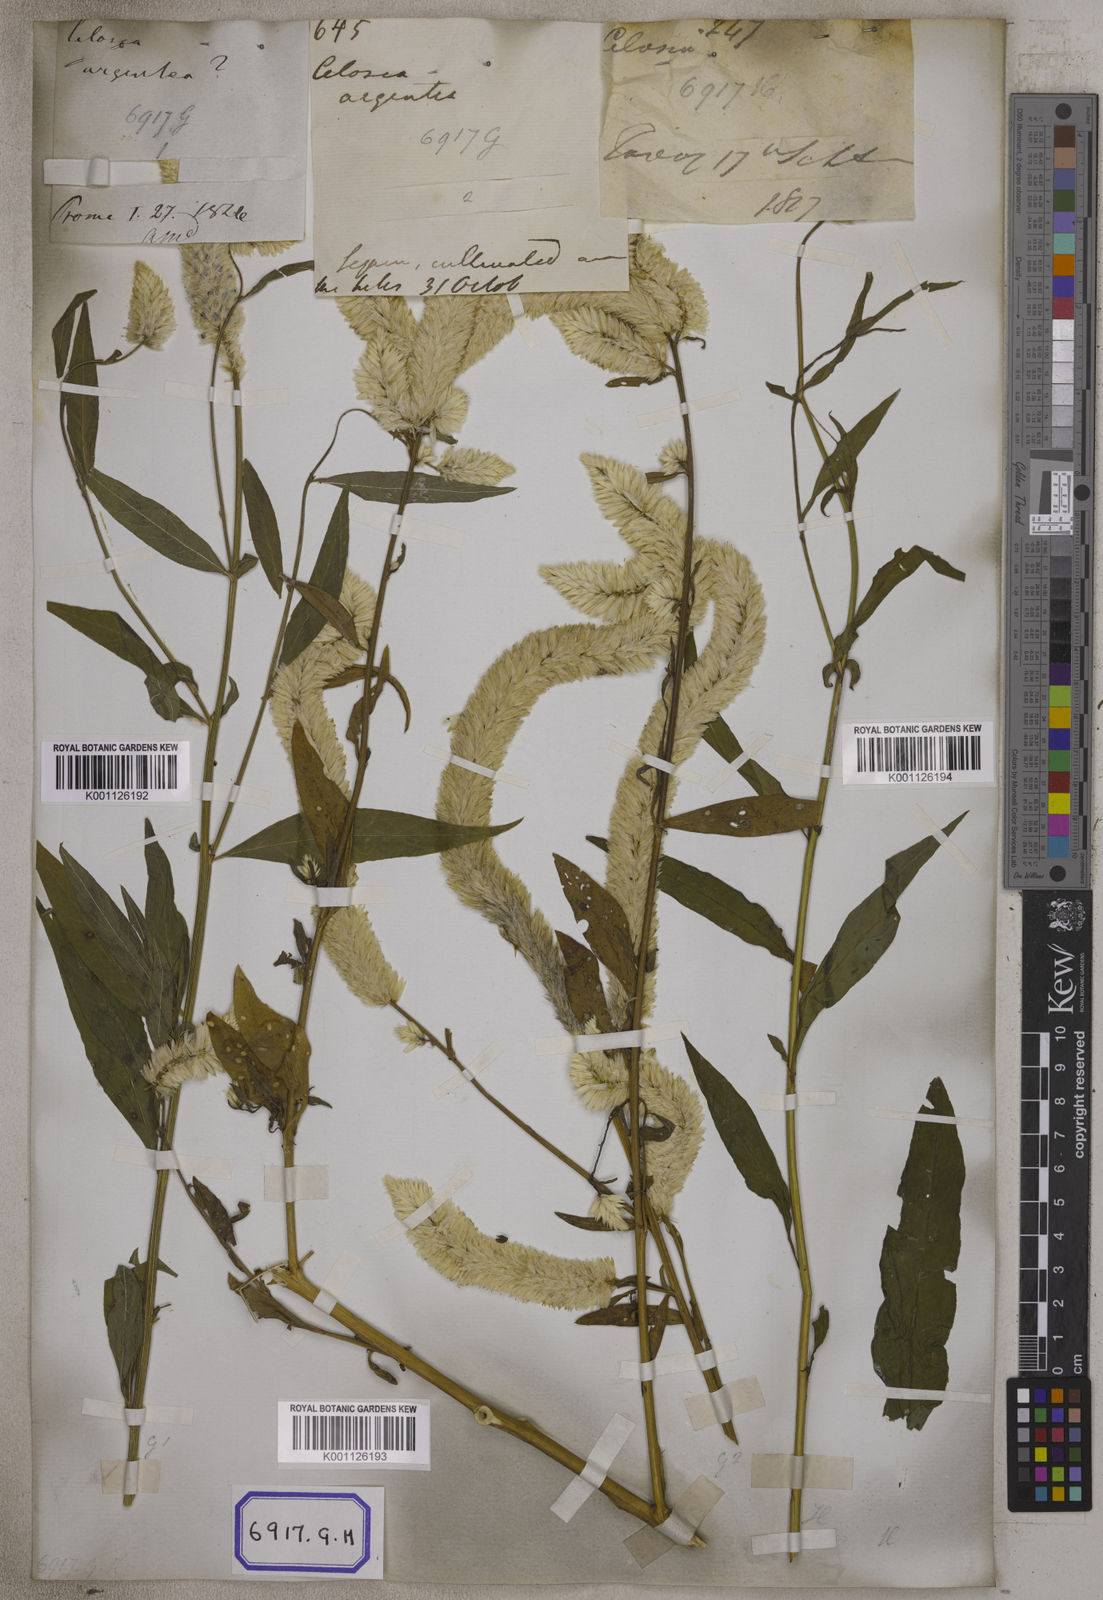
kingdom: Plantae
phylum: Tracheophyta
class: Magnoliopsida
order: Caryophyllales
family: Amaranthaceae
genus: Celosia
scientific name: Celosia argentea
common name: Feather cockscomb
